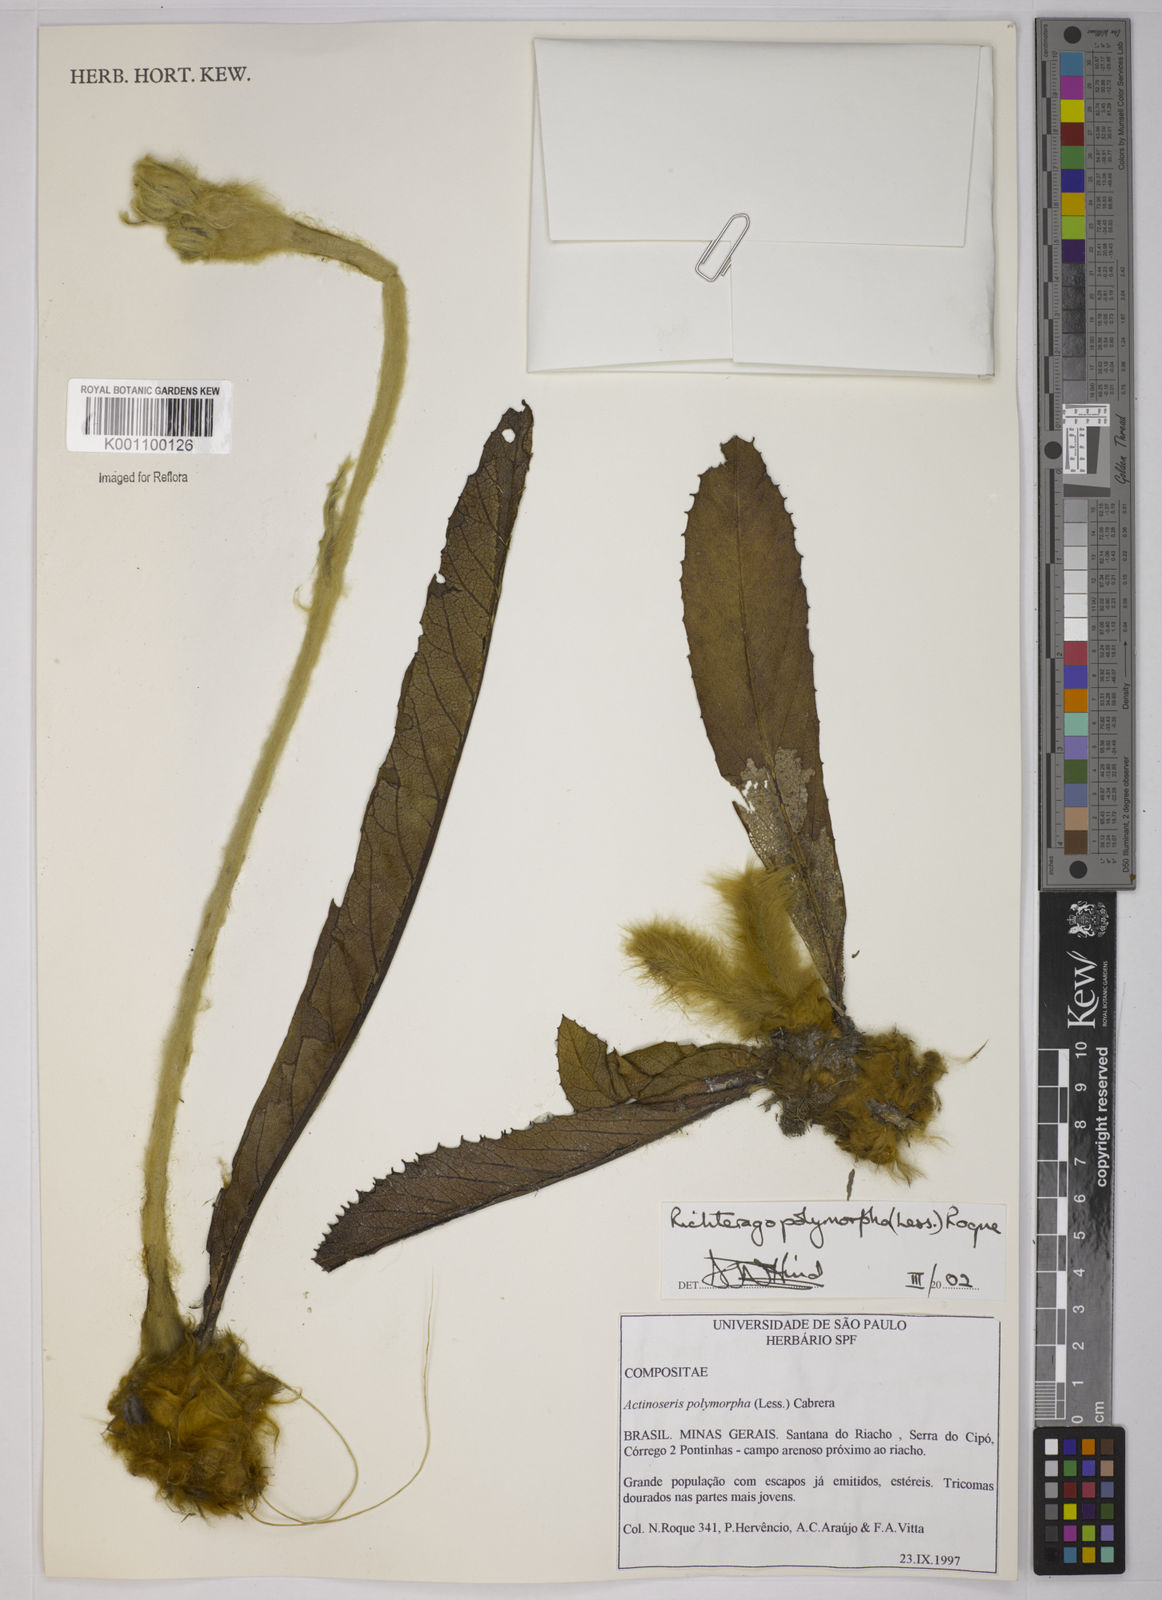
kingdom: Plantae
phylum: Tracheophyta
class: Magnoliopsida
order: Asterales
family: Asteraceae
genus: Richterago
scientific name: Richterago polymorpha
